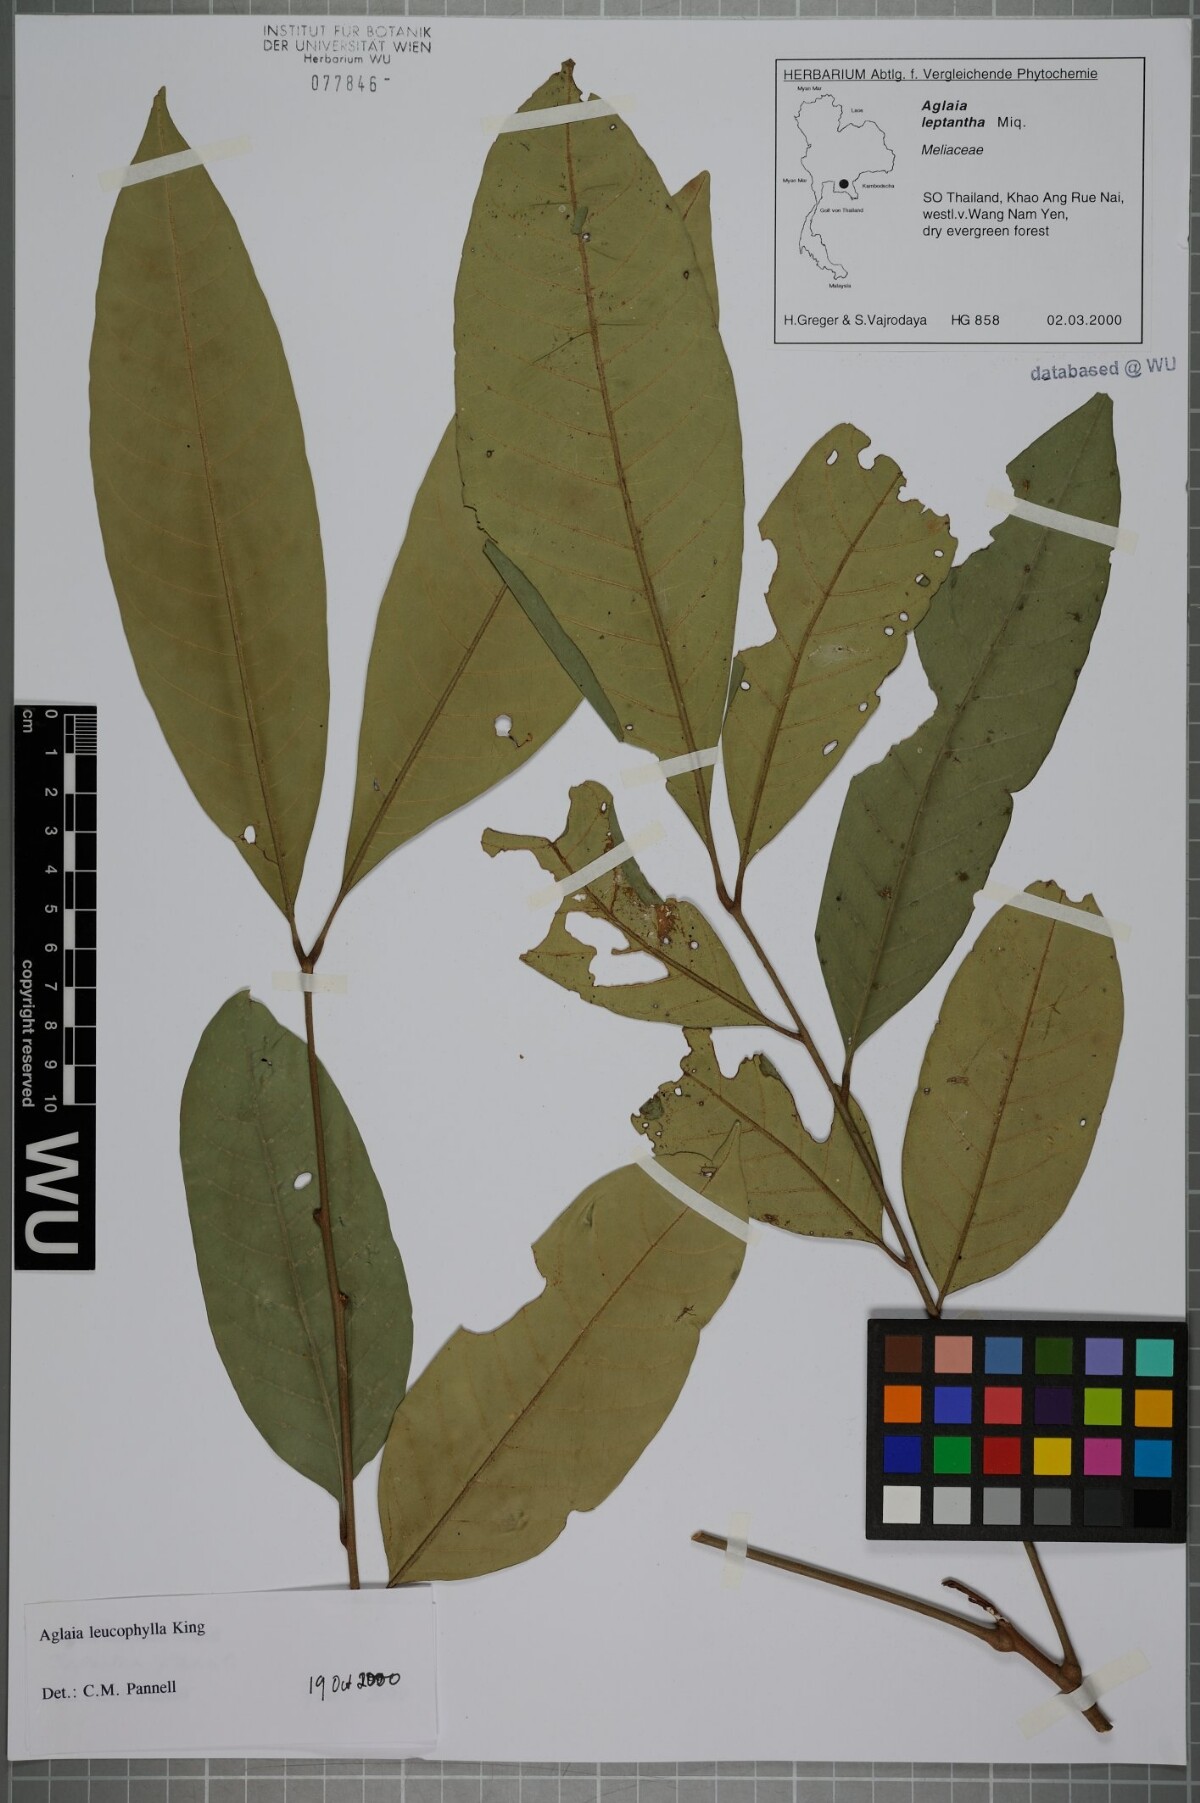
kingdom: Plantae
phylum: Tracheophyta
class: Magnoliopsida
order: Sapindales
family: Meliaceae
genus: Aglaia
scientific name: Aglaia leucophylla
